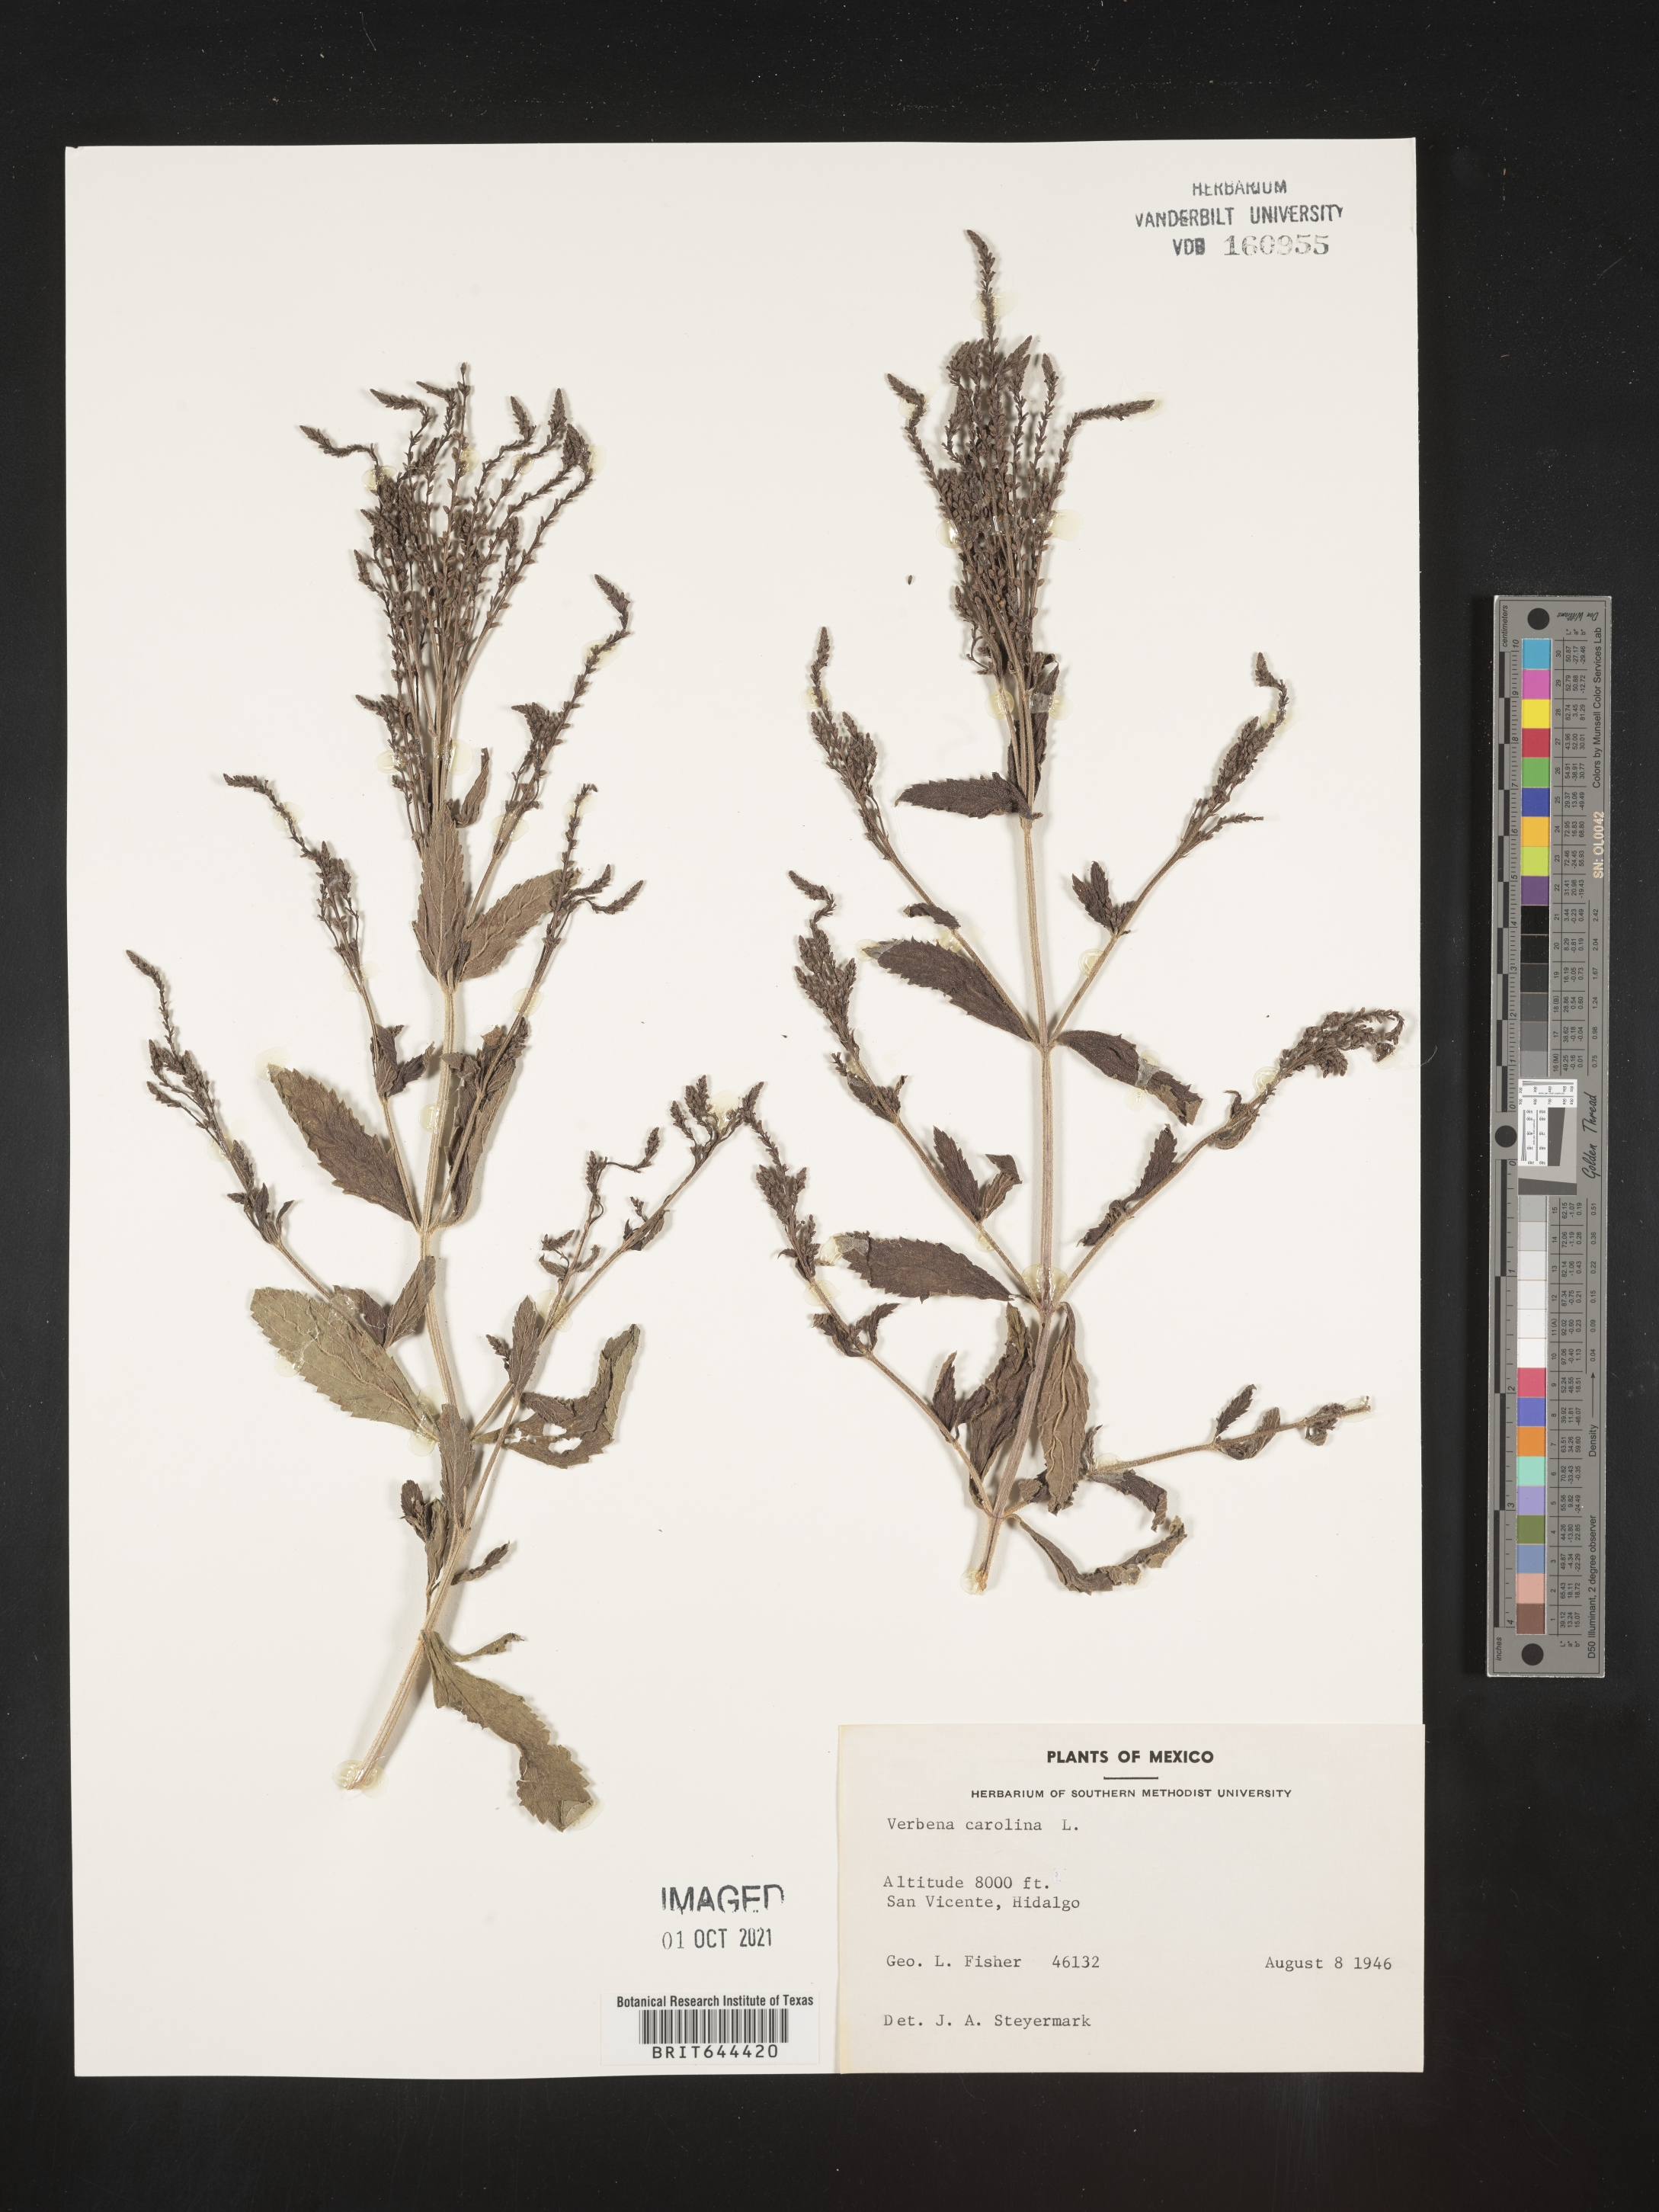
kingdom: Plantae
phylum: Tracheophyta
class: Magnoliopsida
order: Lamiales
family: Verbenaceae
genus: Verbena
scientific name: Verbena
